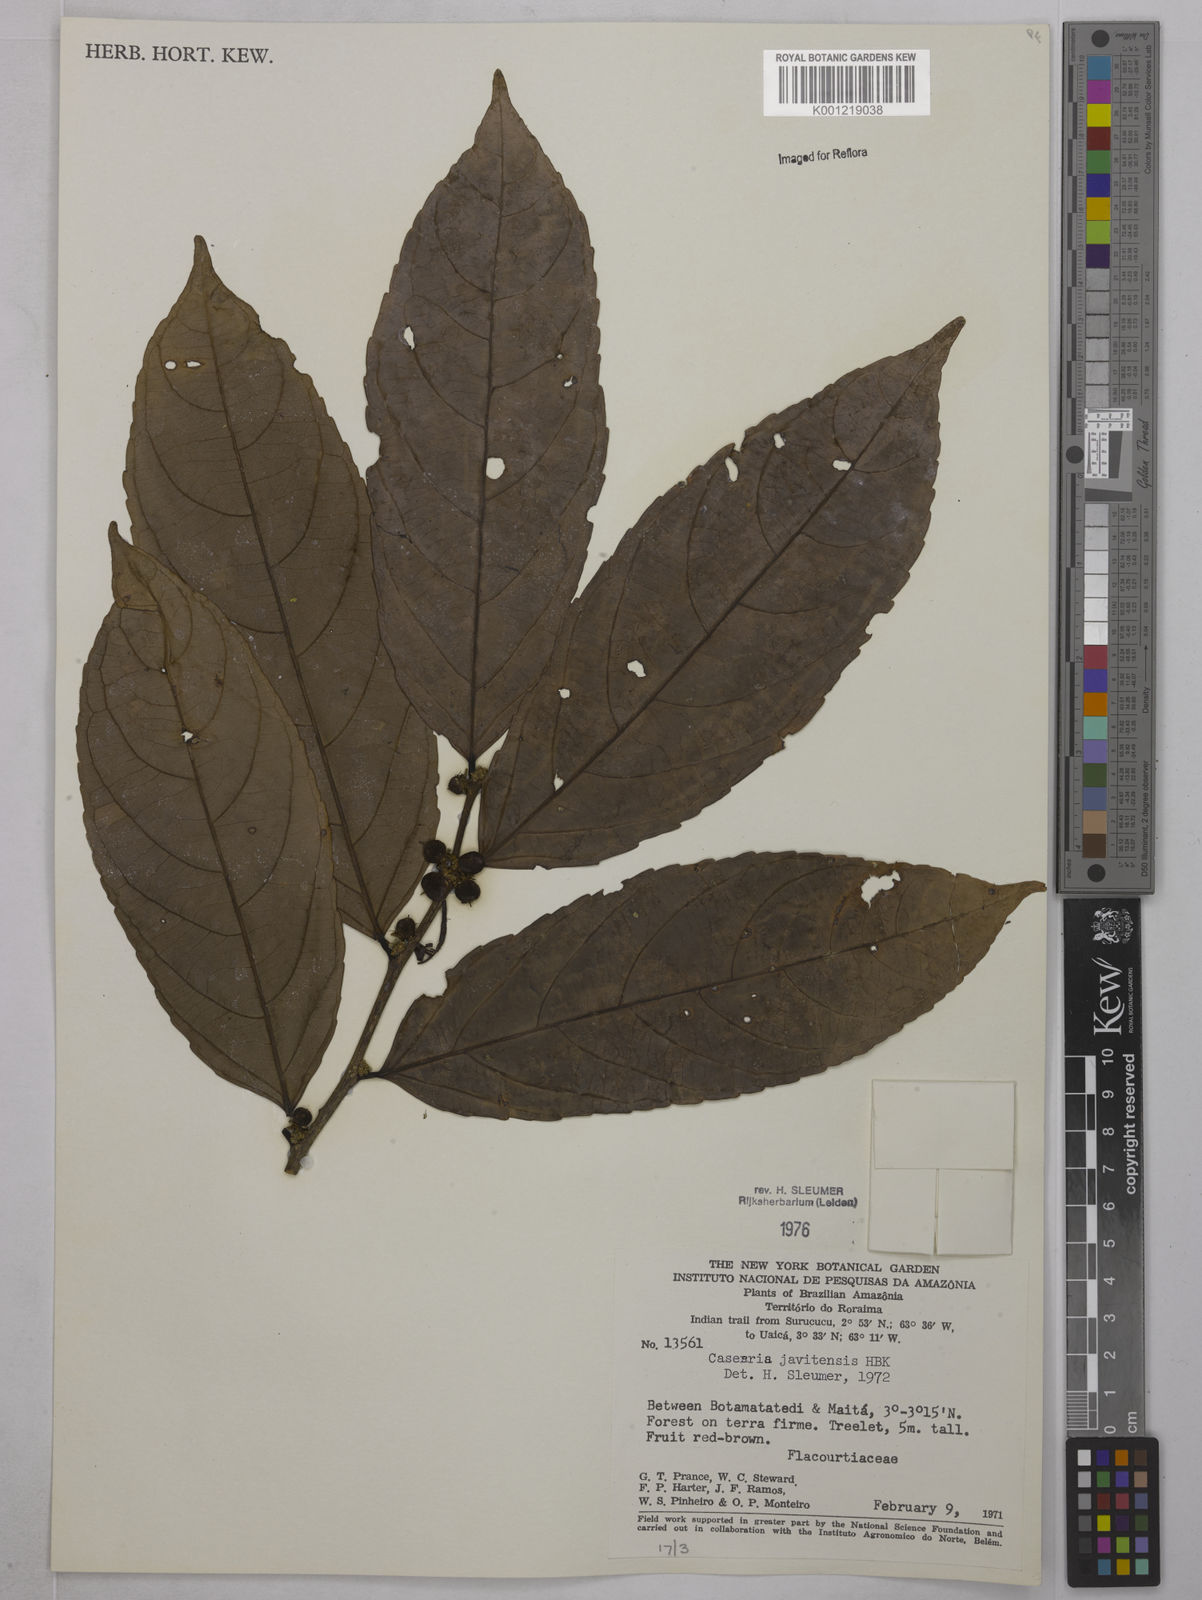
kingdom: Plantae
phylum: Tracheophyta
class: Magnoliopsida
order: Malpighiales
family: Salicaceae
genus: Piparea
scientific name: Piparea multiflora
